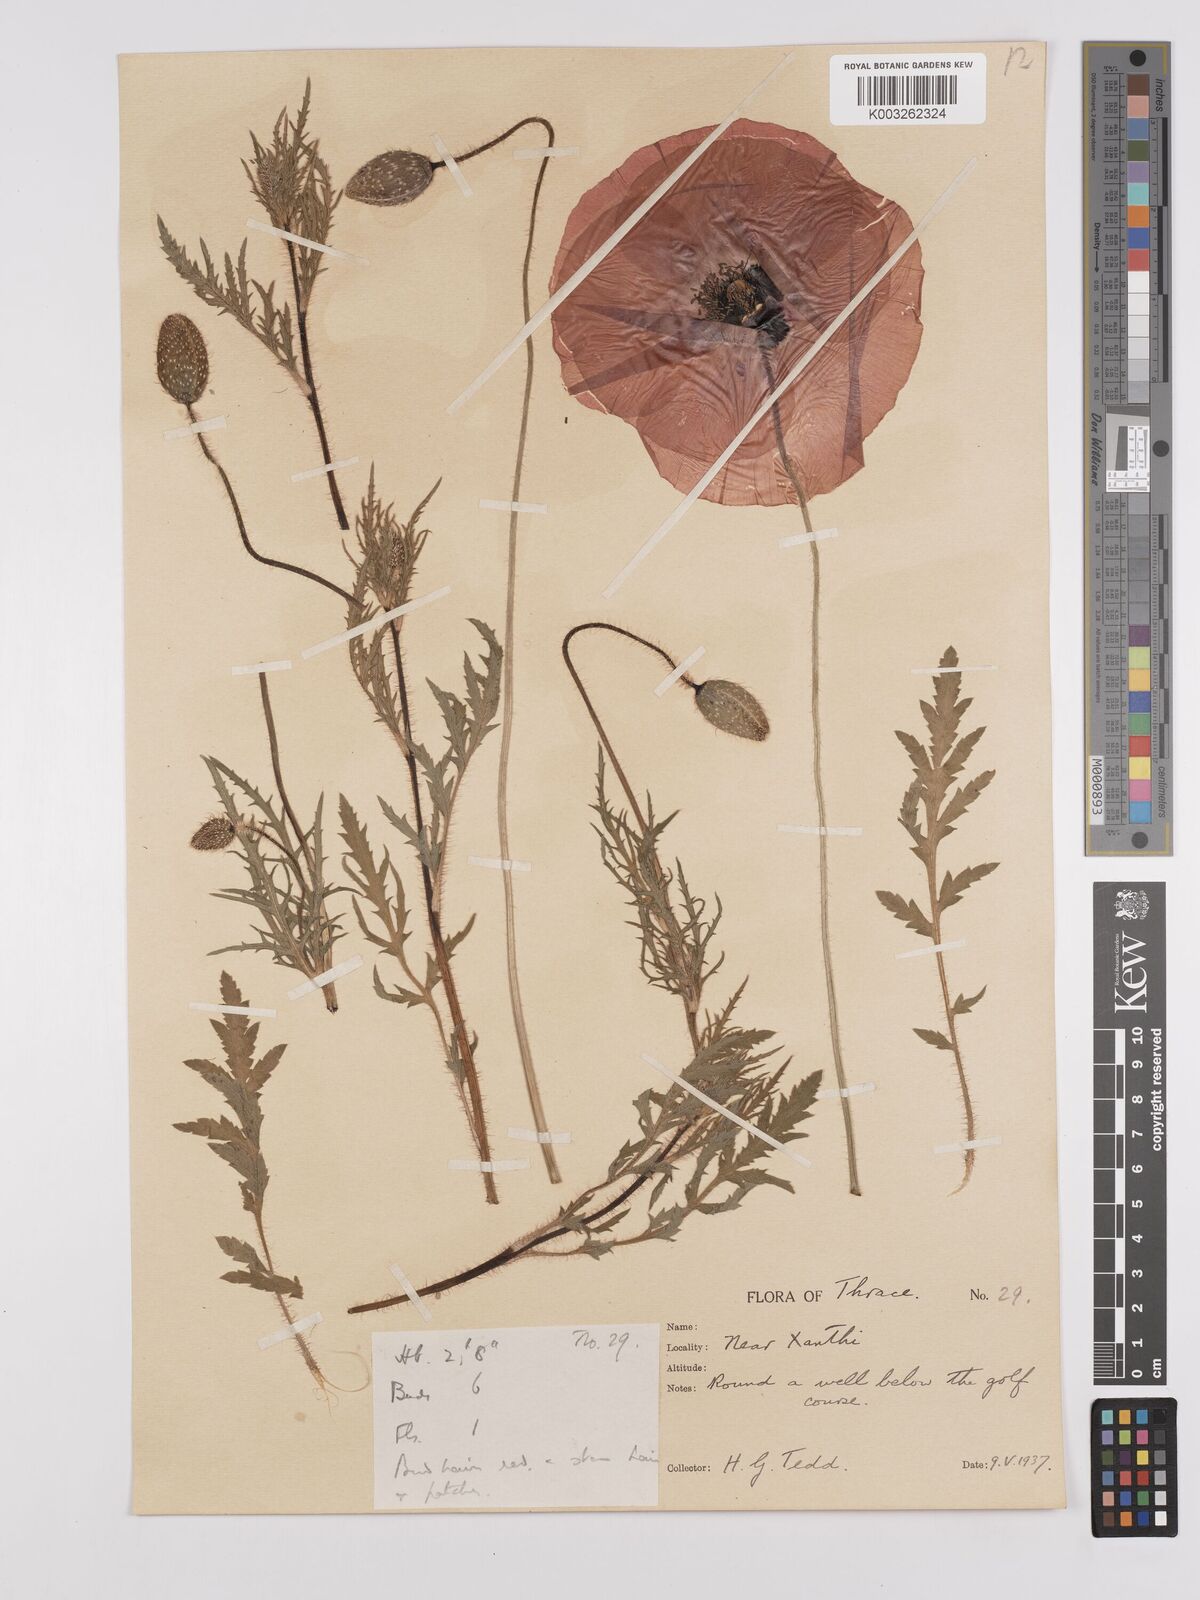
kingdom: Plantae
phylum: Tracheophyta
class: Magnoliopsida
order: Ranunculales
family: Papaveraceae
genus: Papaver
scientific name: Papaver rhoeas
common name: Corn poppy
